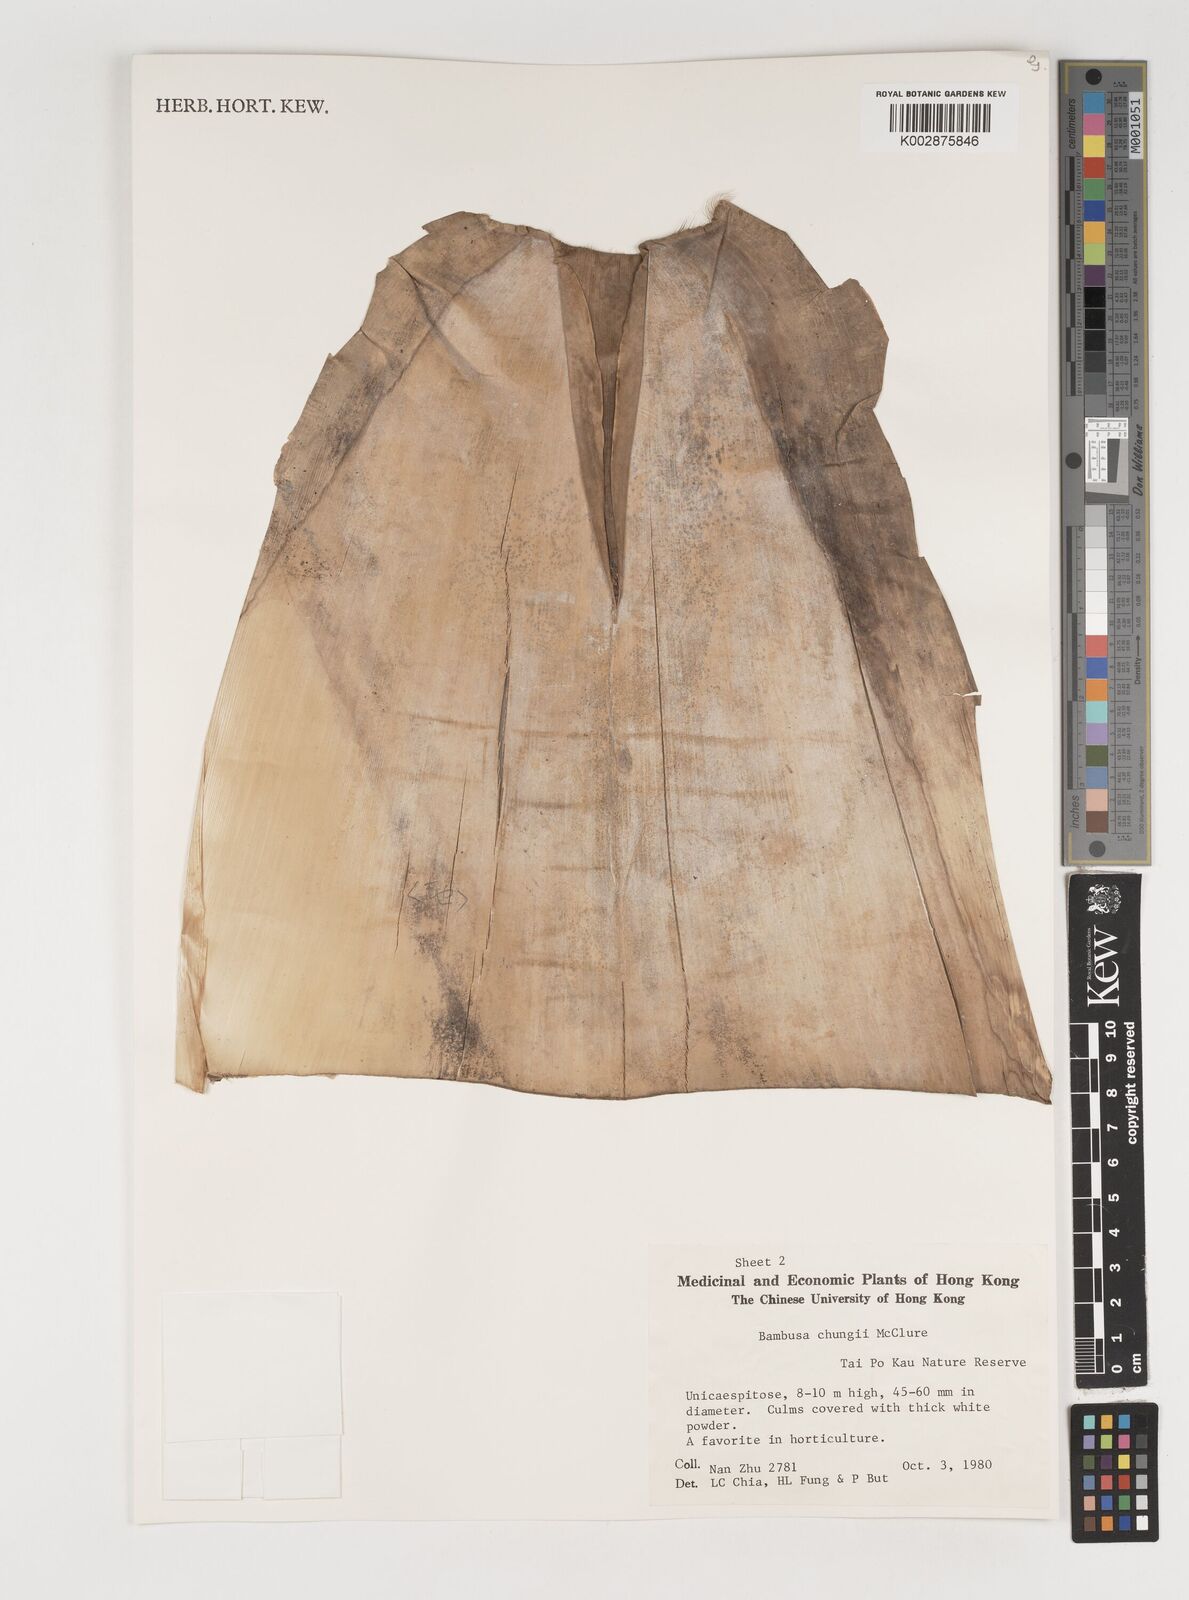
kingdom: Plantae
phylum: Tracheophyta
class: Liliopsida
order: Poales
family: Poaceae
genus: Bambusa
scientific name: Bambusa chungii
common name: White-powder bamboo
